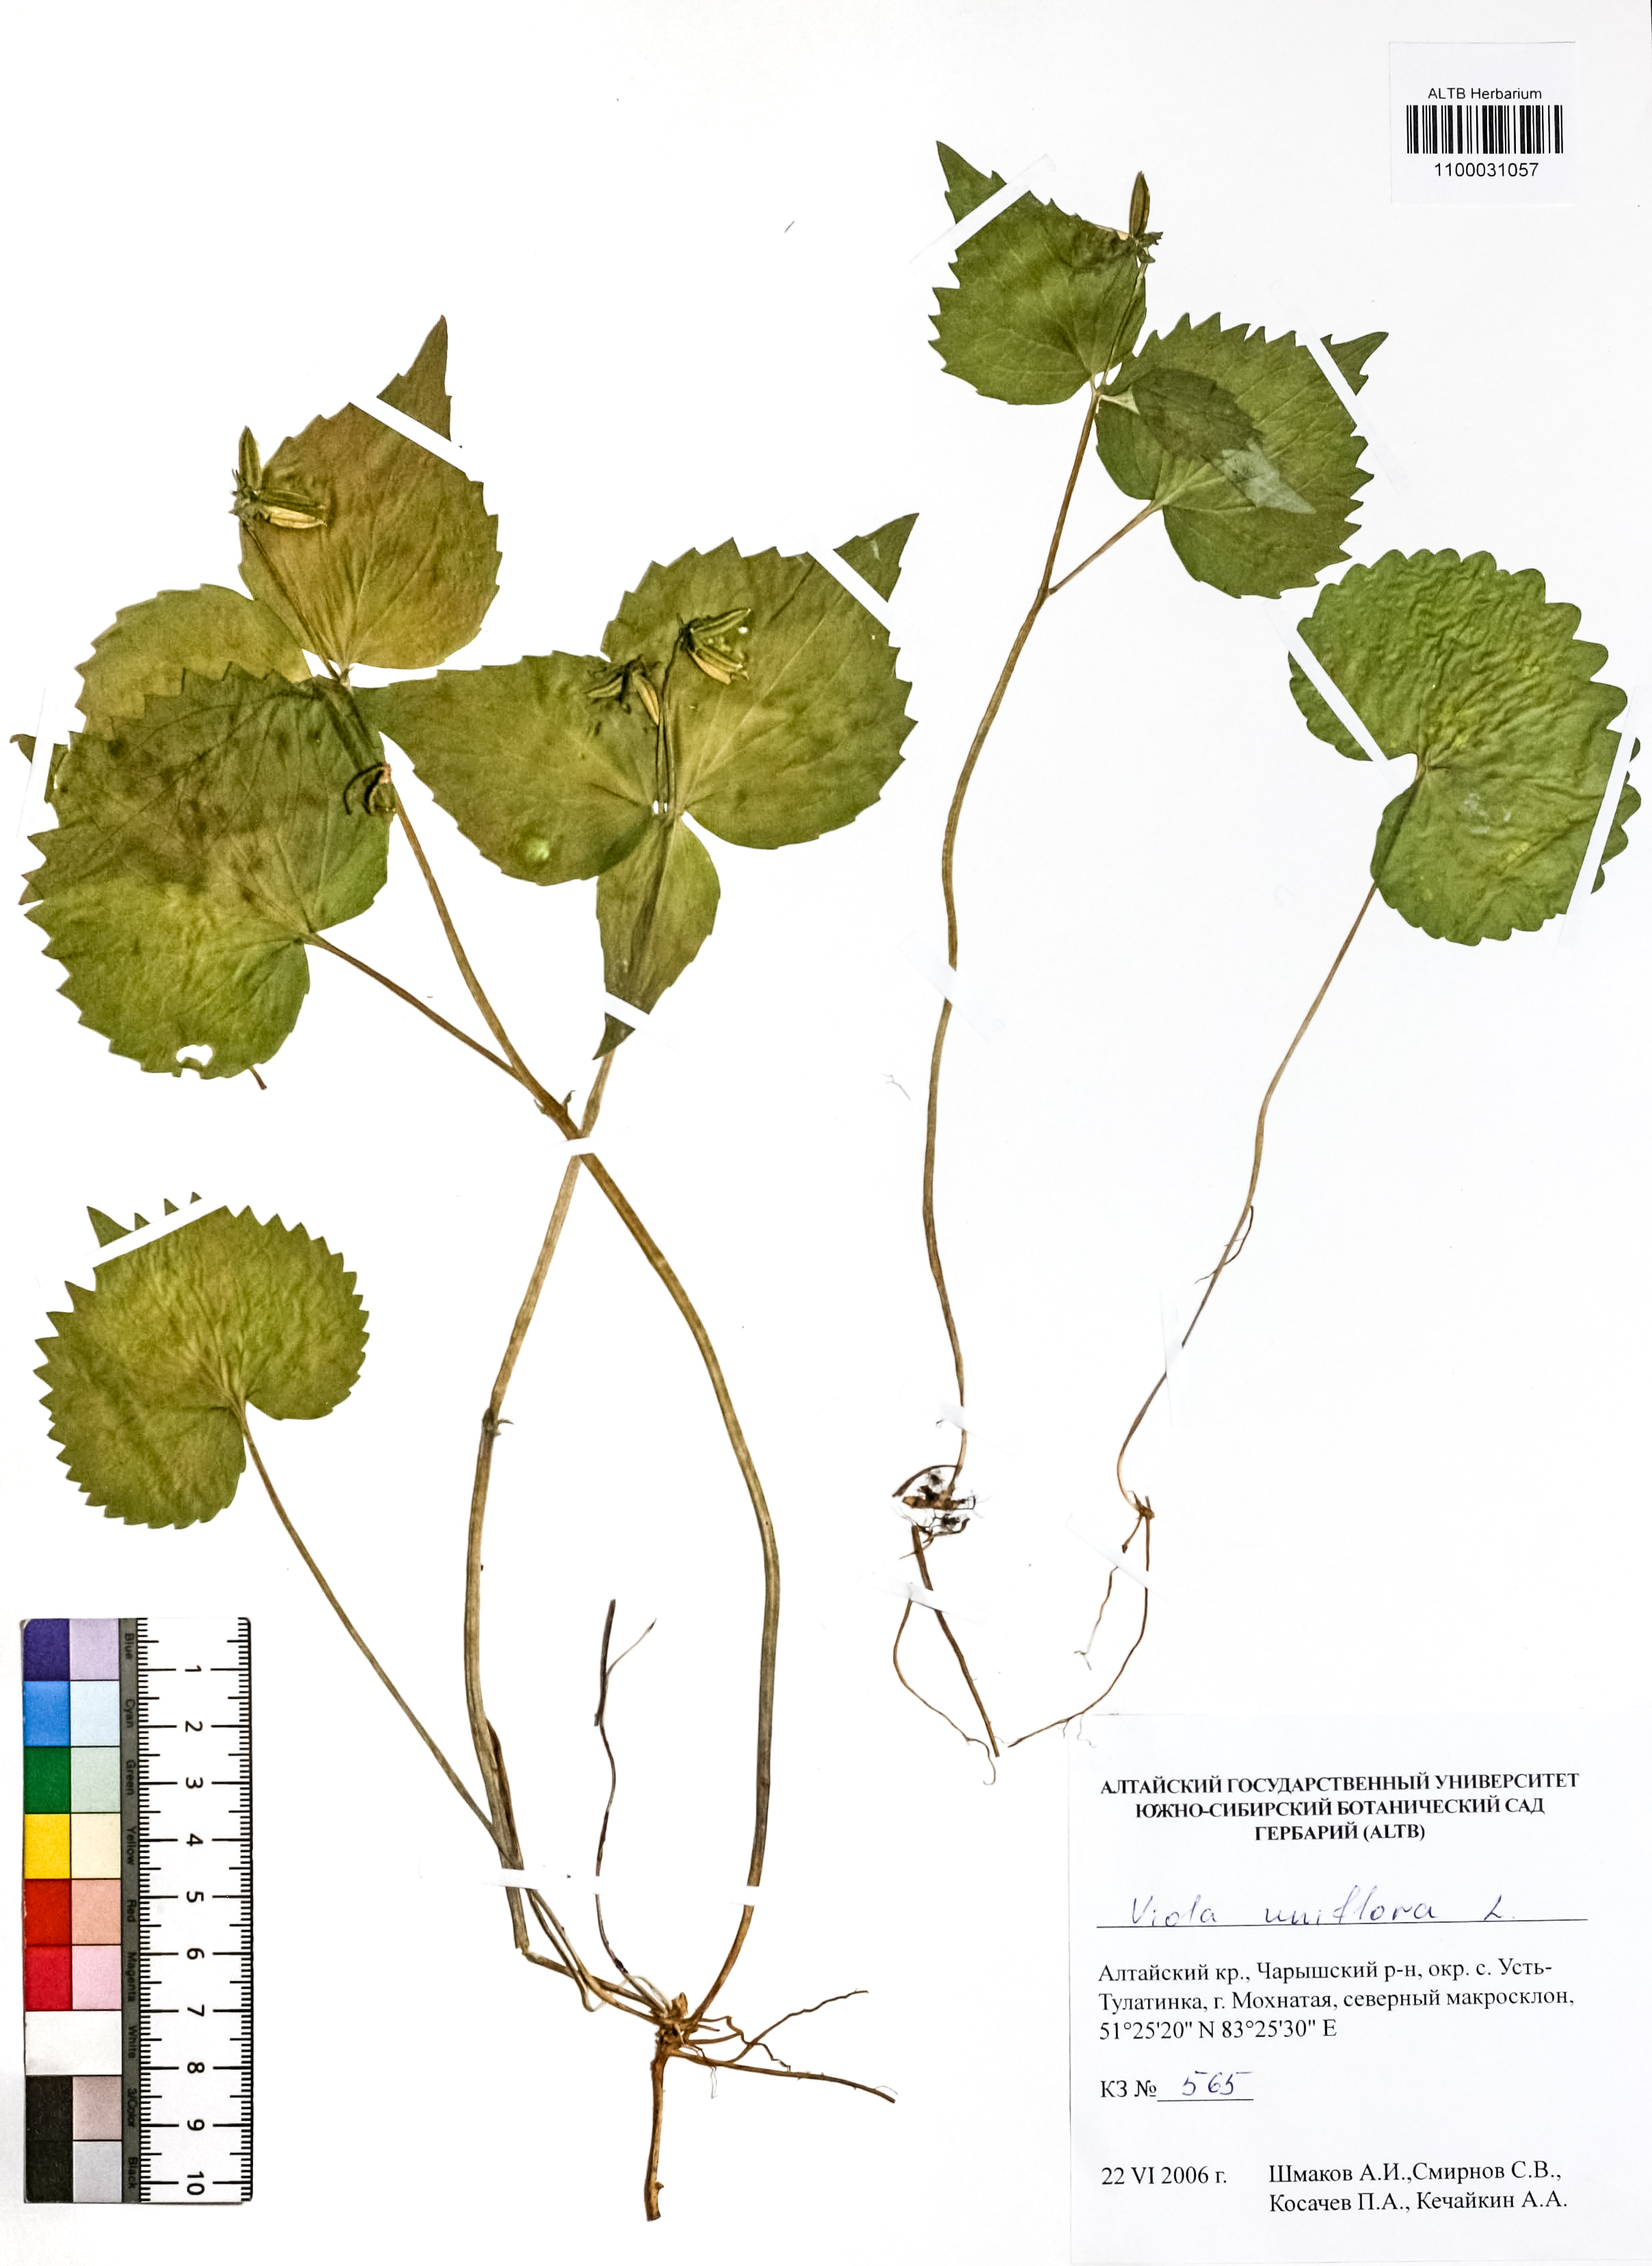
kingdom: Plantae
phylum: Tracheophyta
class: Magnoliopsida
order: Malpighiales
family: Violaceae
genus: Viola
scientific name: Viola uniflora
